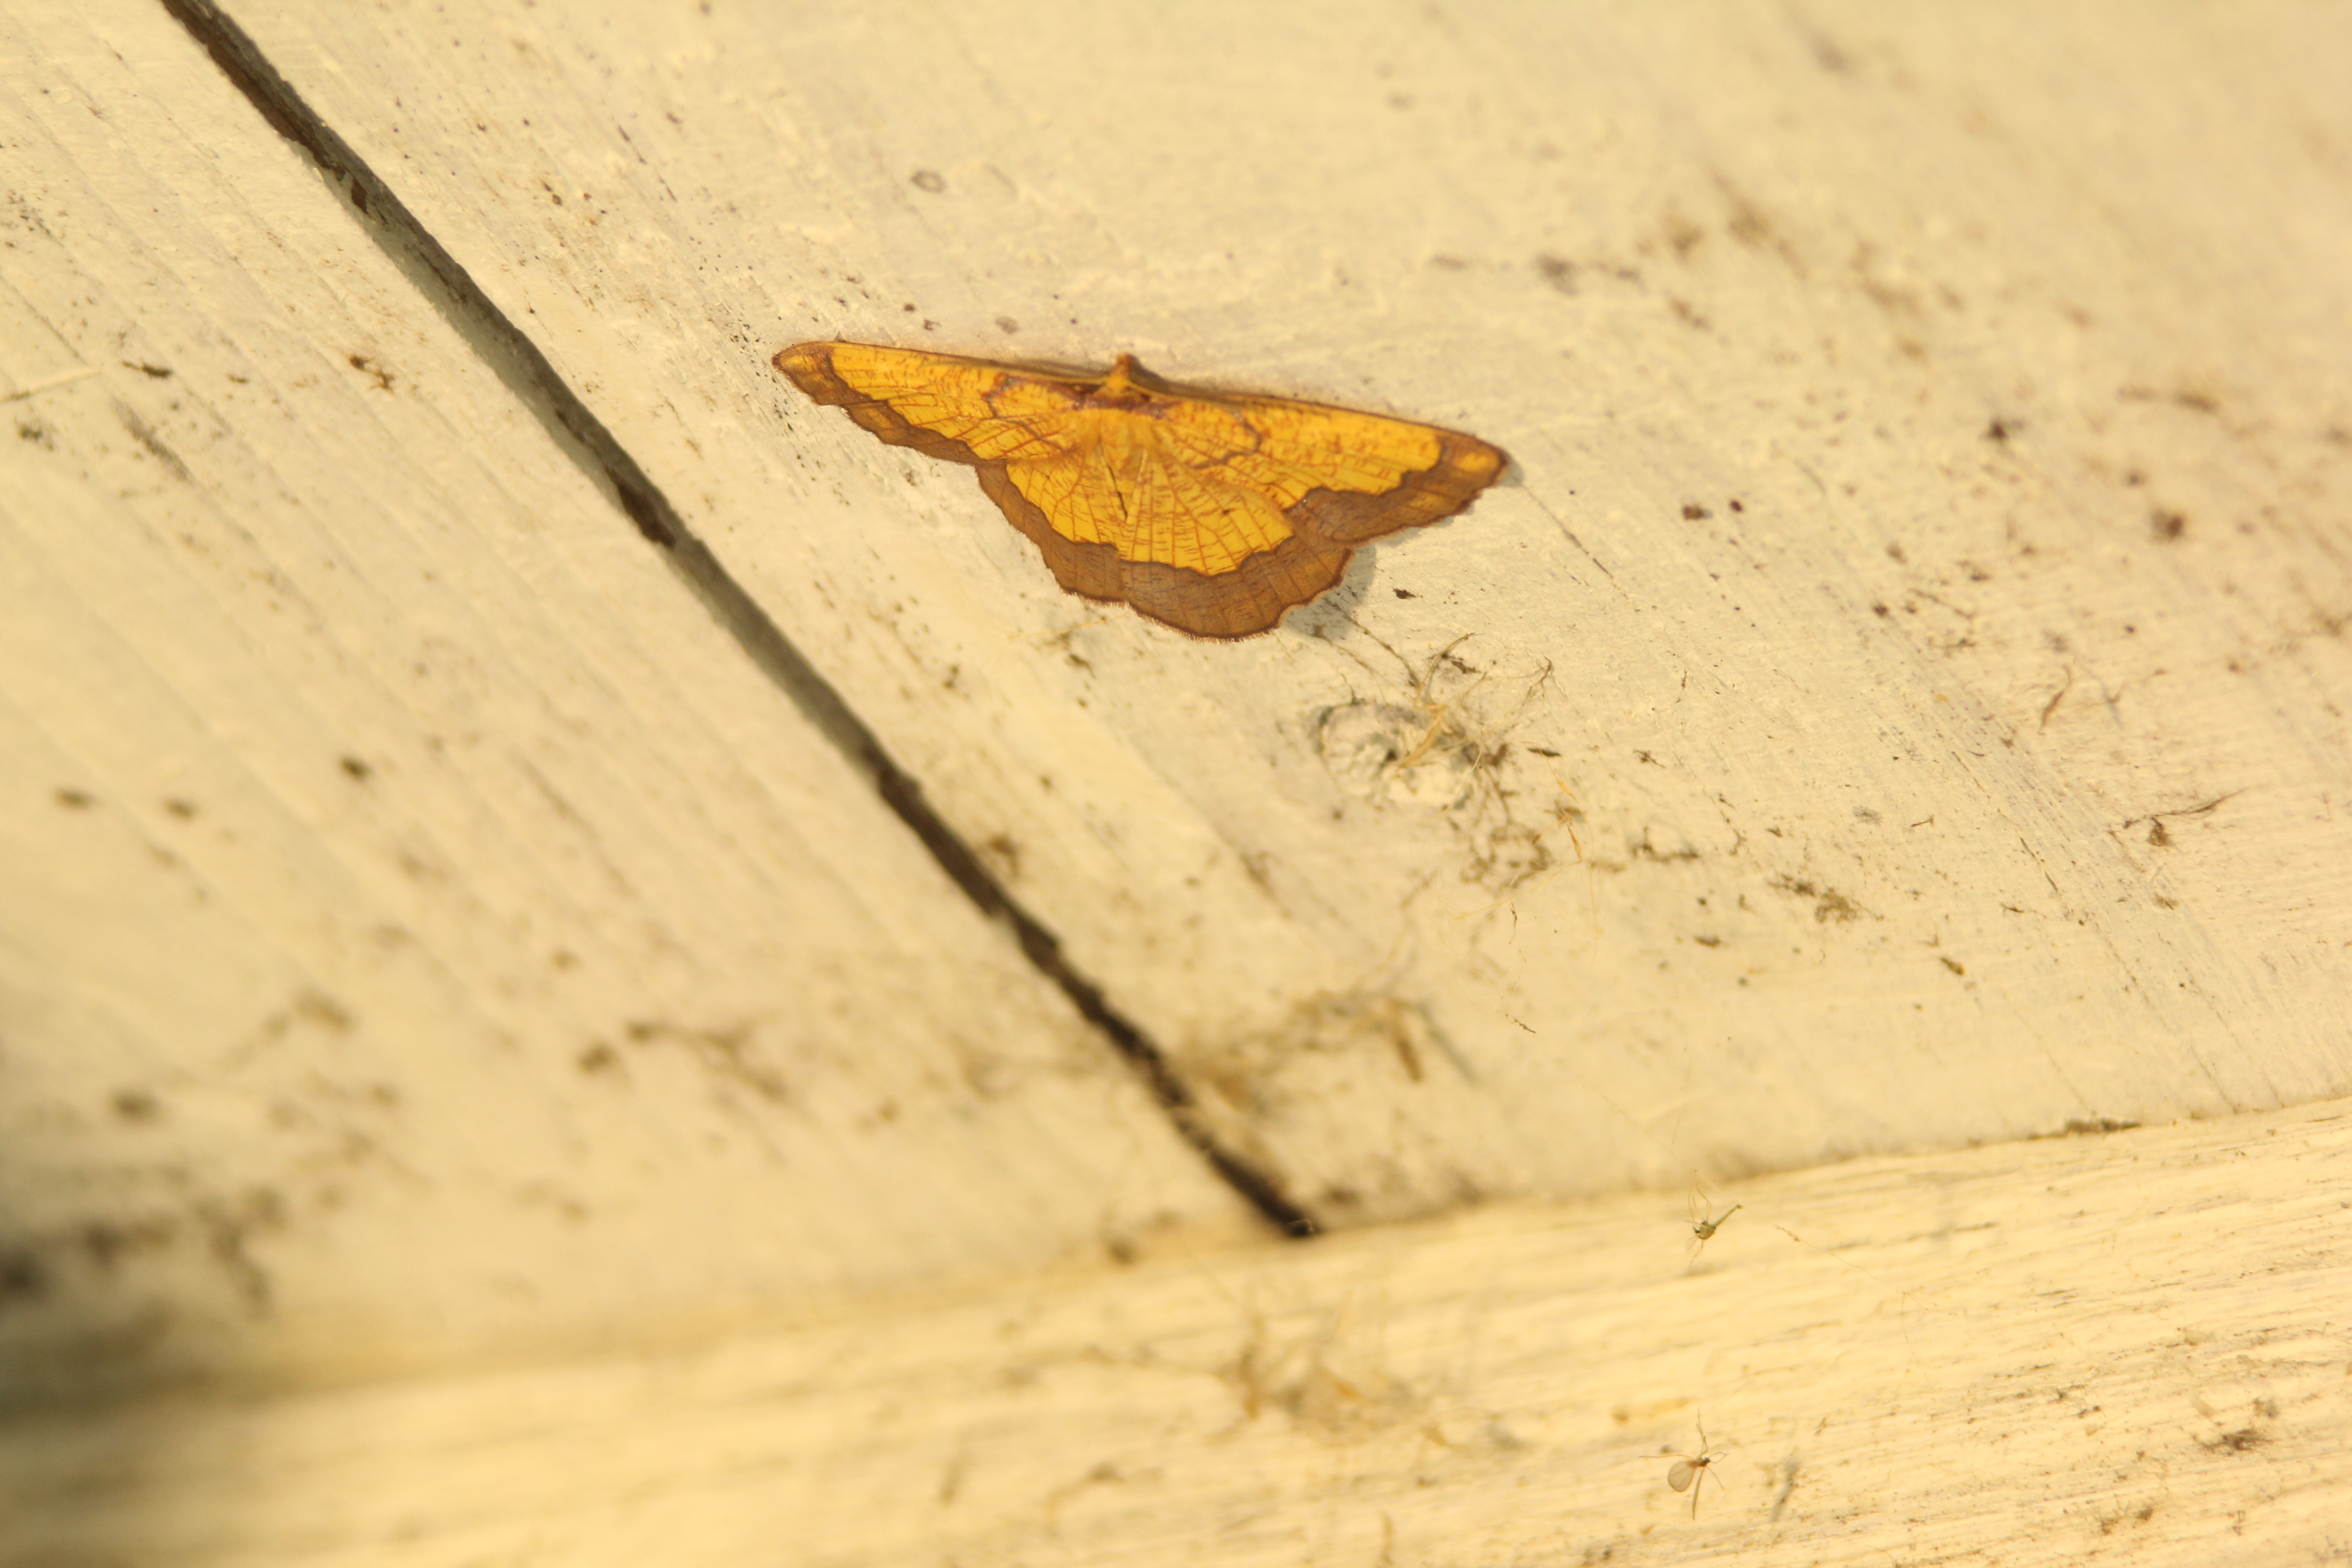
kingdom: Animalia
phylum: Arthropoda
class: Insecta
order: Lepidoptera
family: Geometridae
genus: Epione
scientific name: Epione vespertaria
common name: Dark bordered beauty
